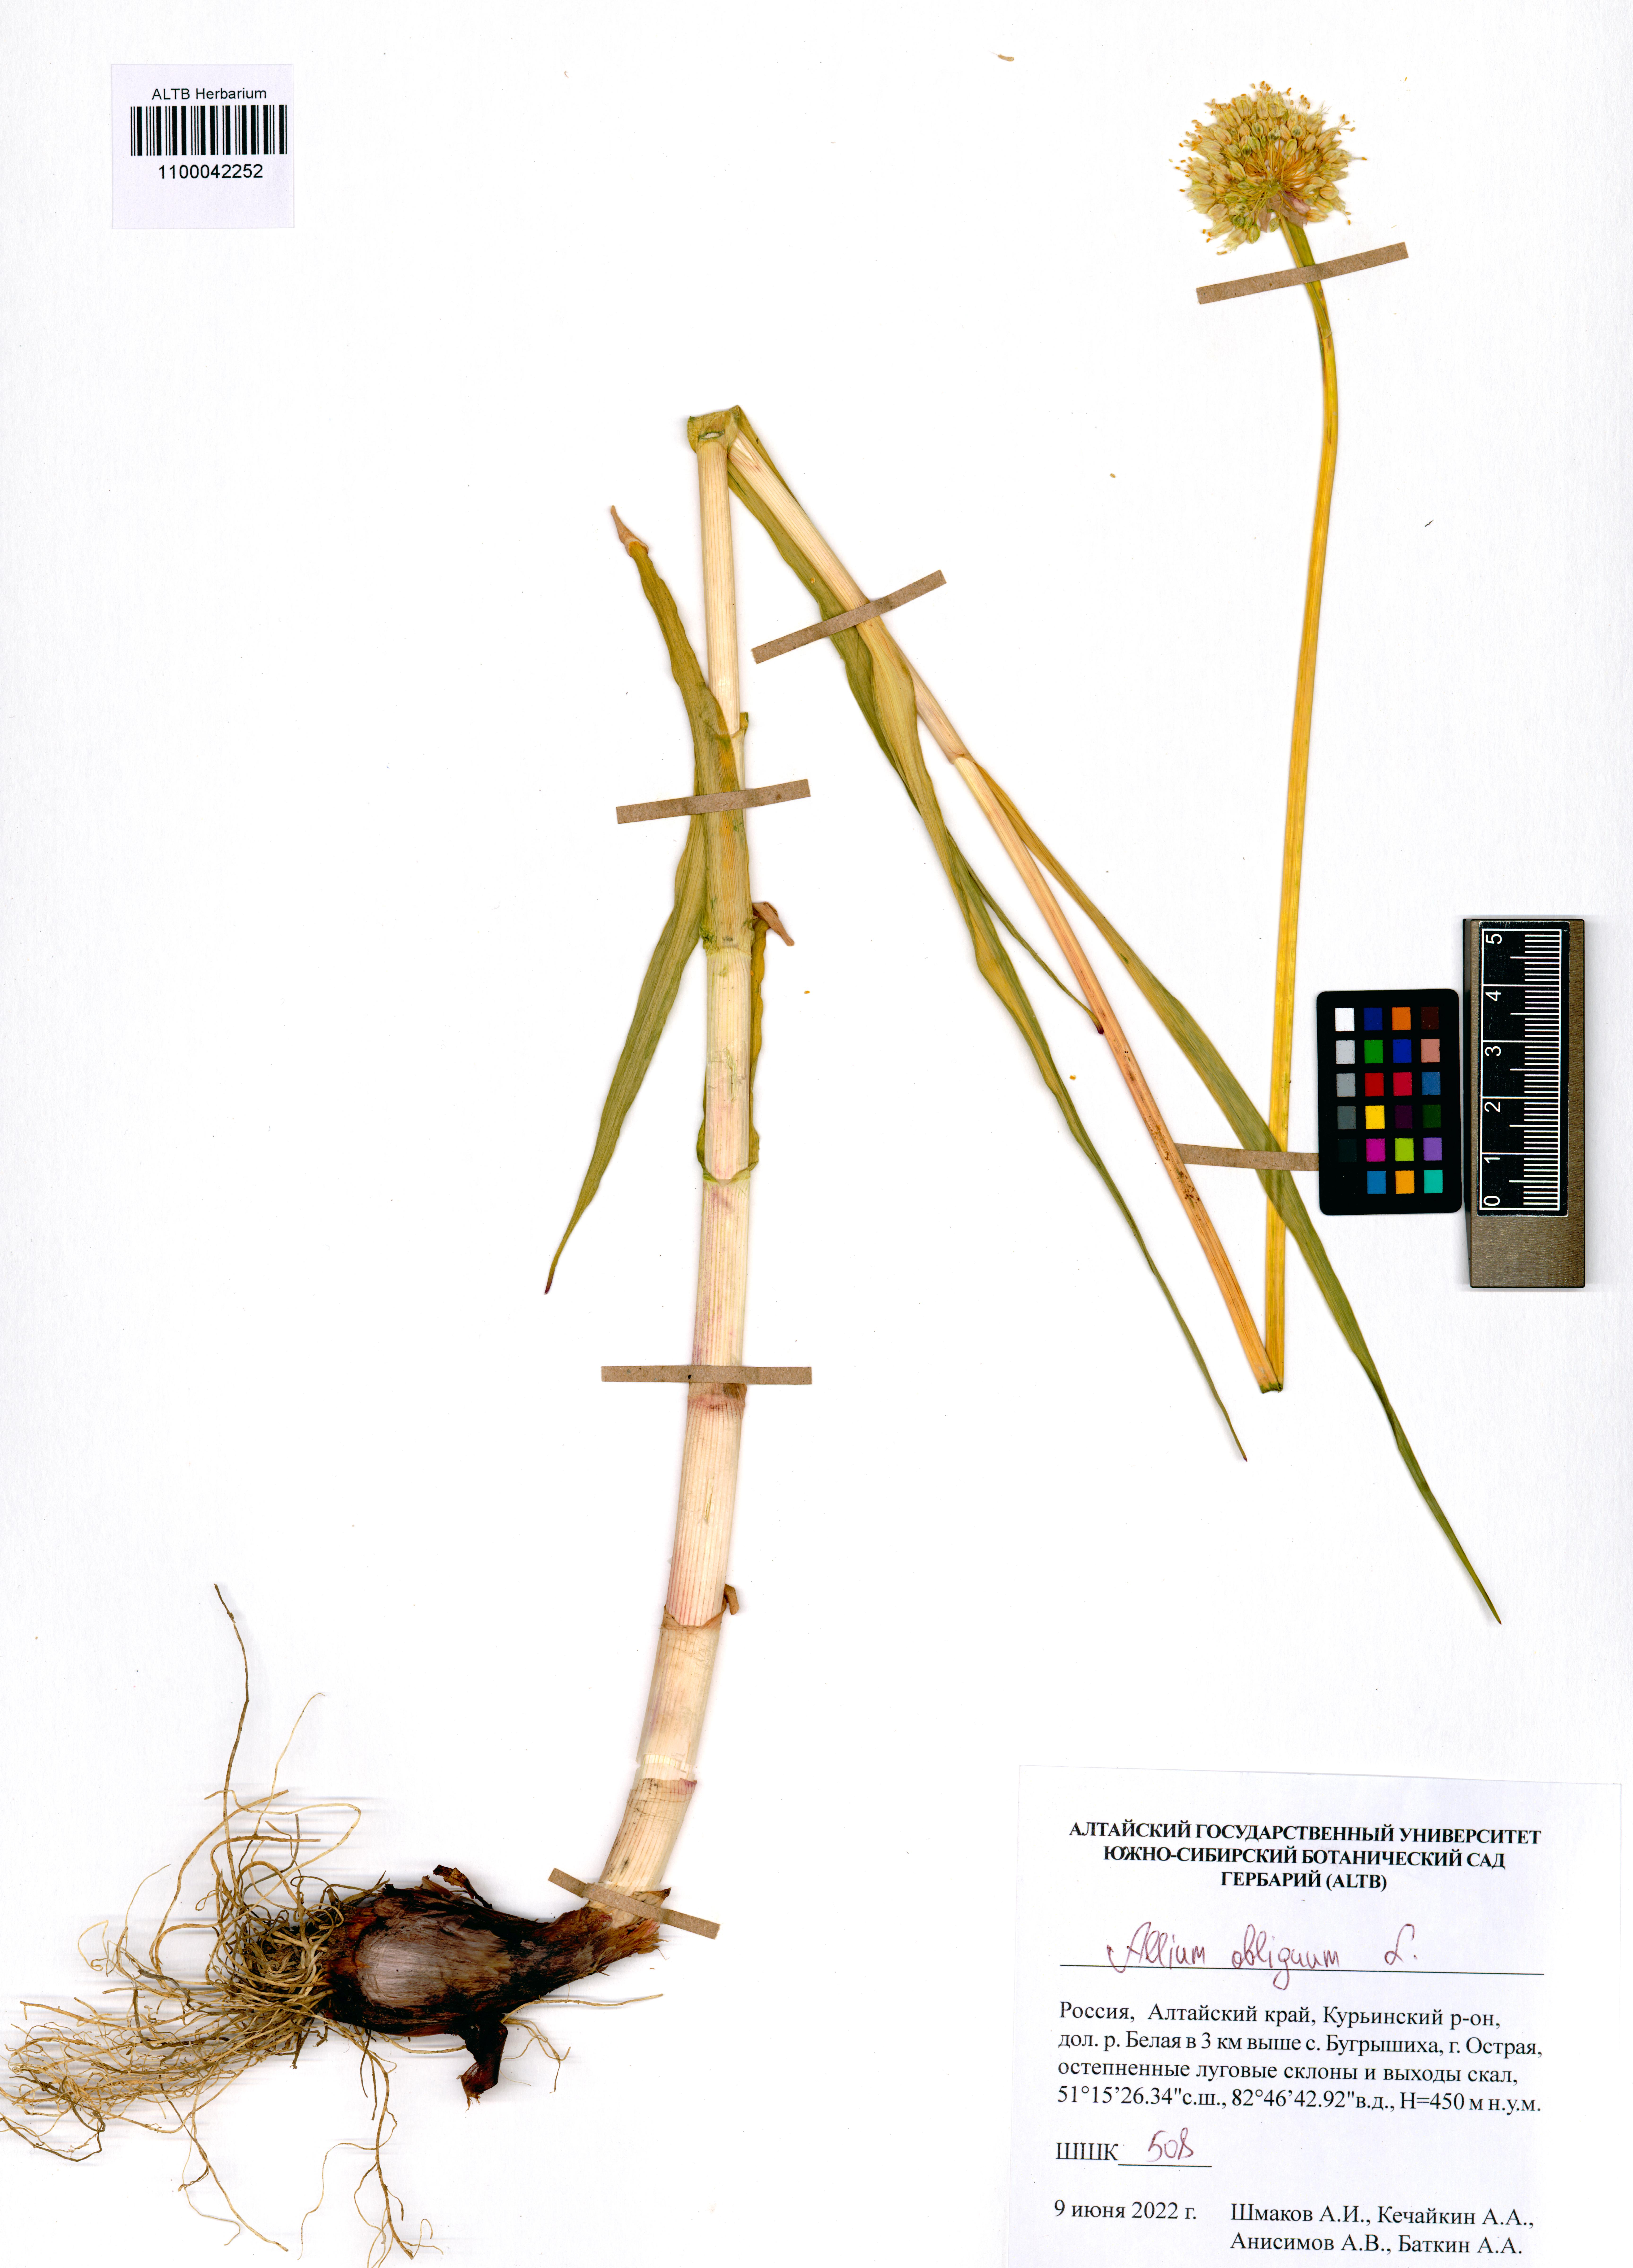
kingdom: Plantae
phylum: Tracheophyta
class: Liliopsida
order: Asparagales
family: Amaryllidaceae
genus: Allium
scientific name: Allium obliquum
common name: Oblique onion
